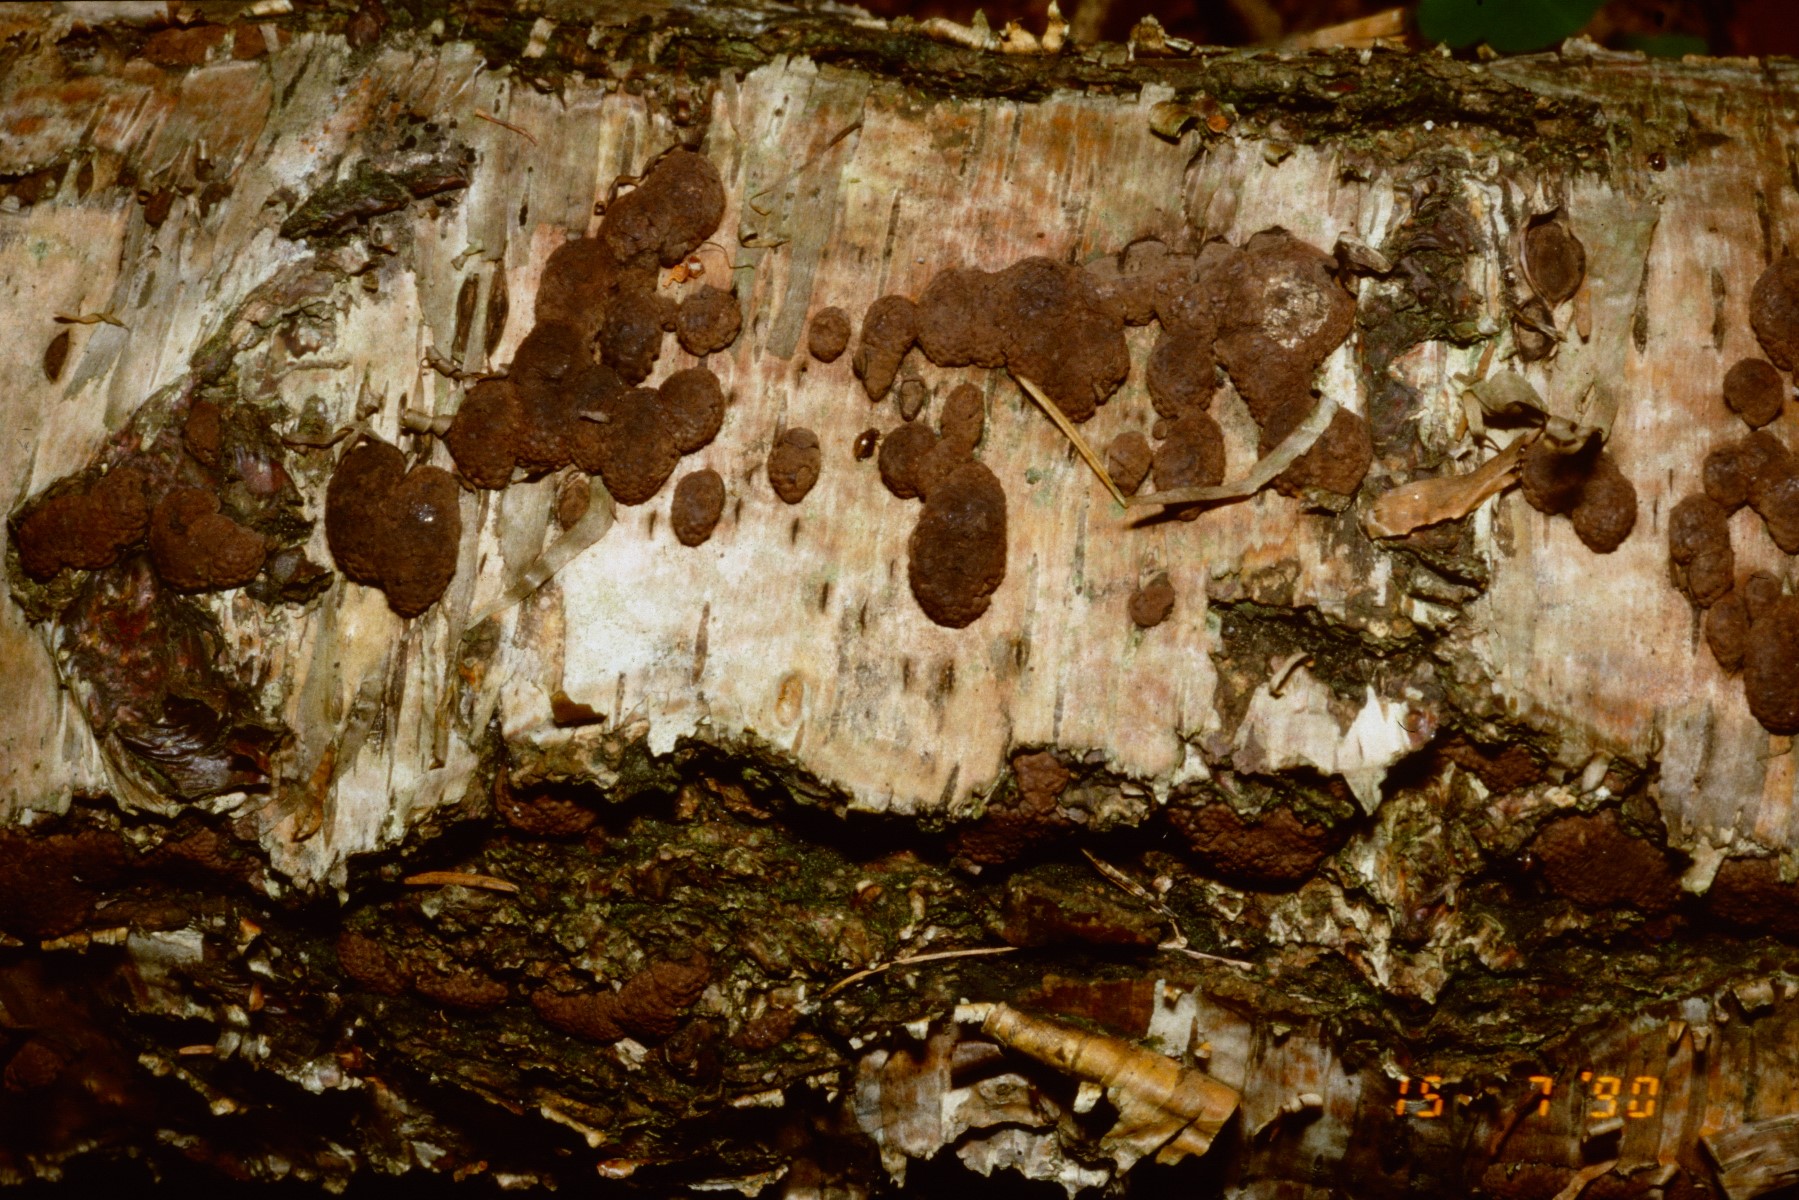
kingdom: Fungi
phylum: Ascomycota
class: Sordariomycetes
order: Xylariales
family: Hypoxylaceae
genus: Jackrogersella
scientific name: Jackrogersella multiformis
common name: foranderlig kulbær
